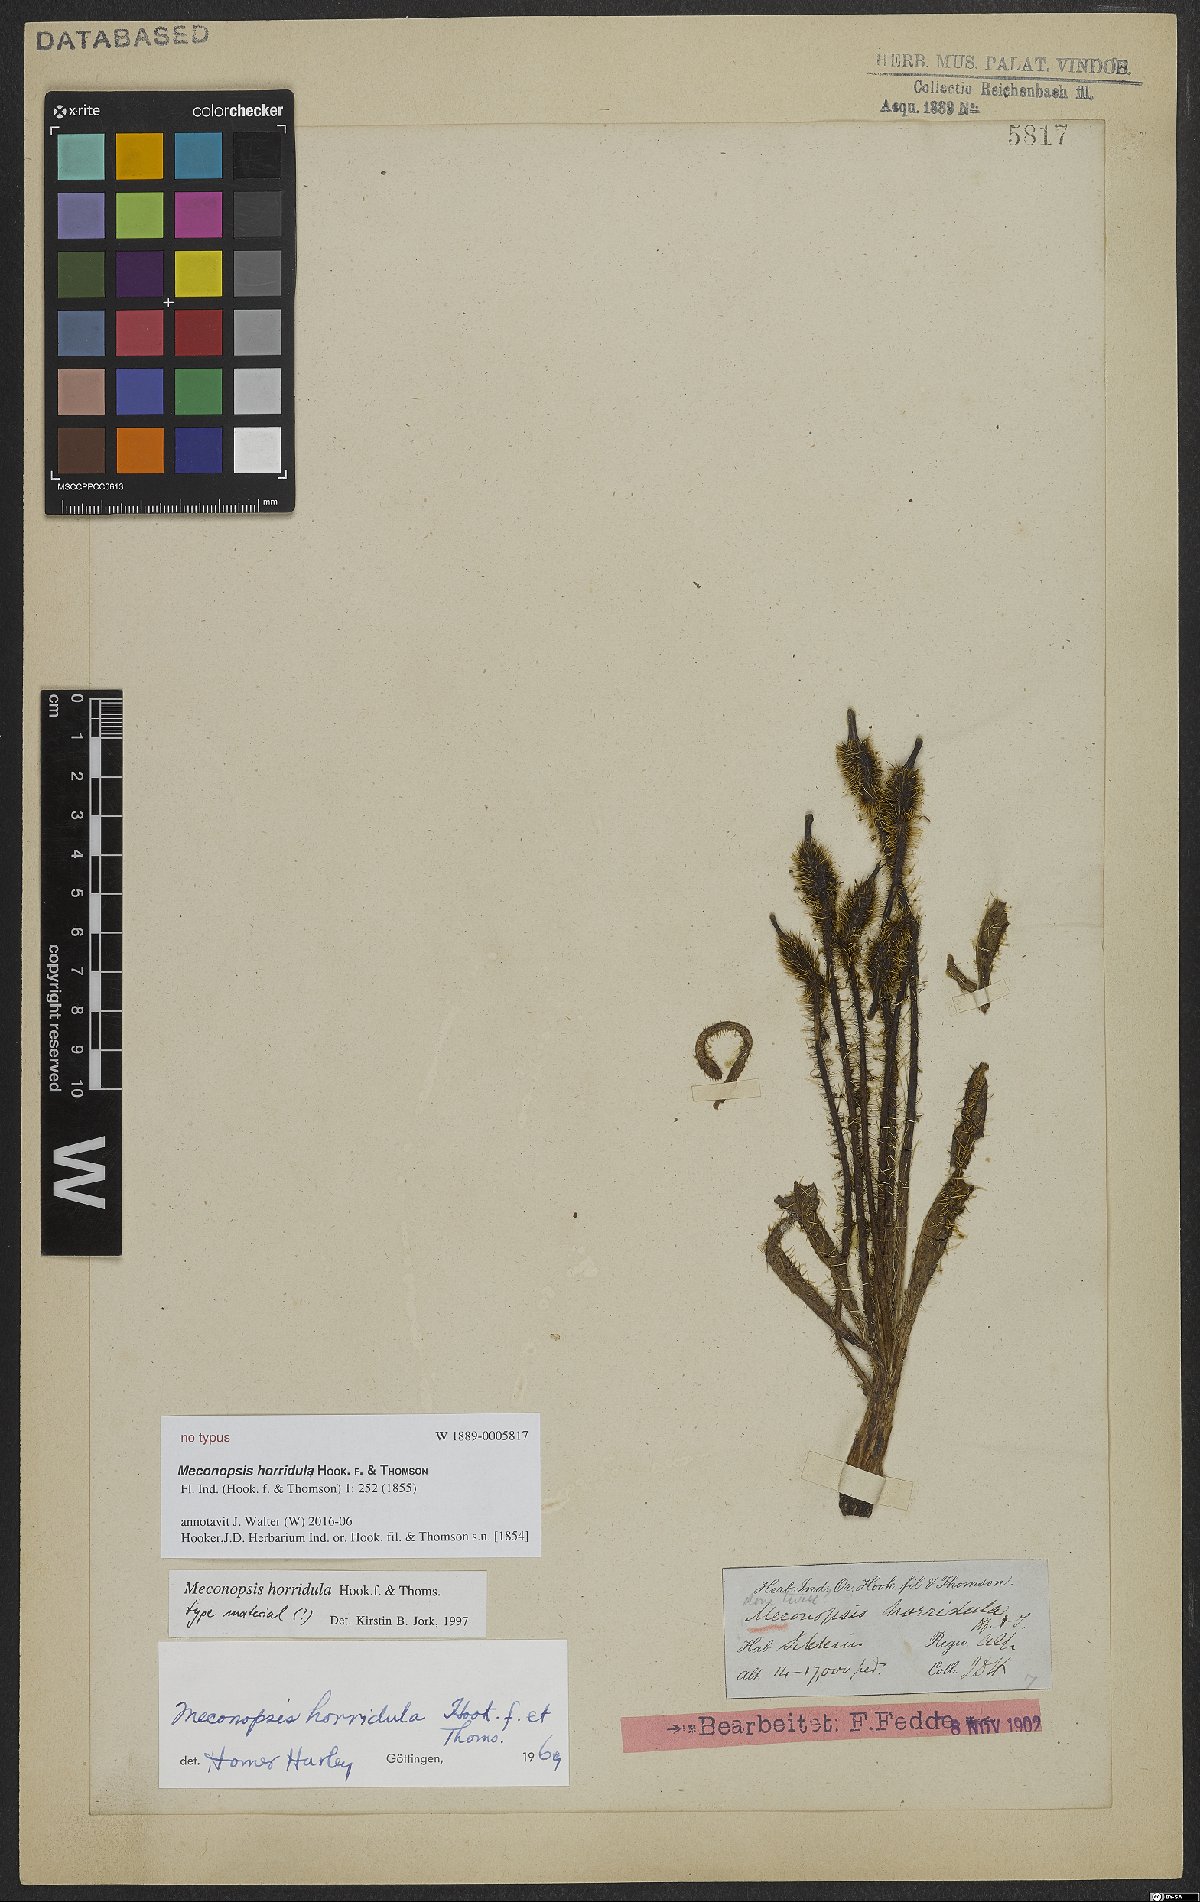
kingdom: Plantae
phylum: Tracheophyta
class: Magnoliopsida
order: Ranunculales
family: Papaveraceae
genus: Meconopsis
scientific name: Meconopsis horridula
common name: Prickly blue-poppy
